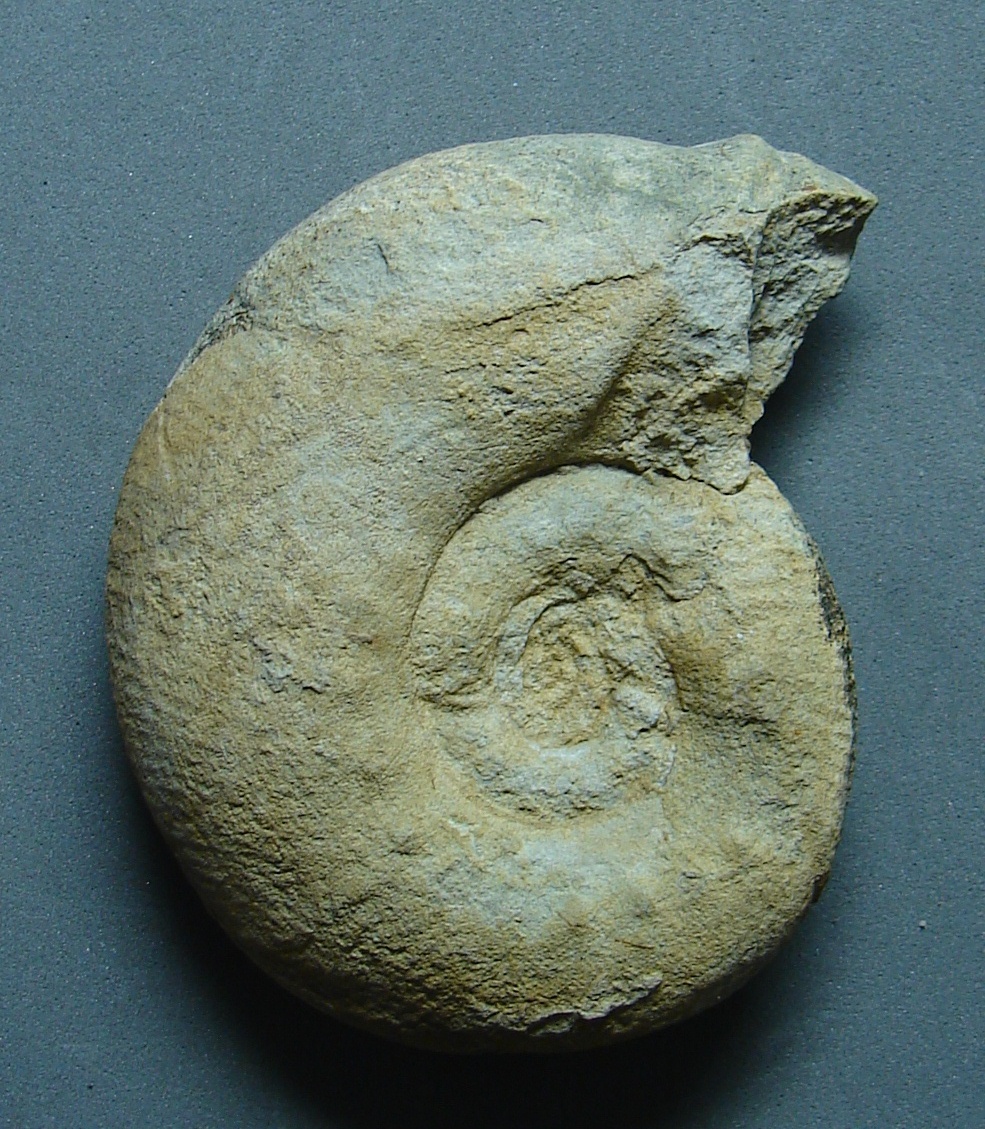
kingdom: Animalia
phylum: Mollusca
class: Bivalvia
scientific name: Bivalvia
